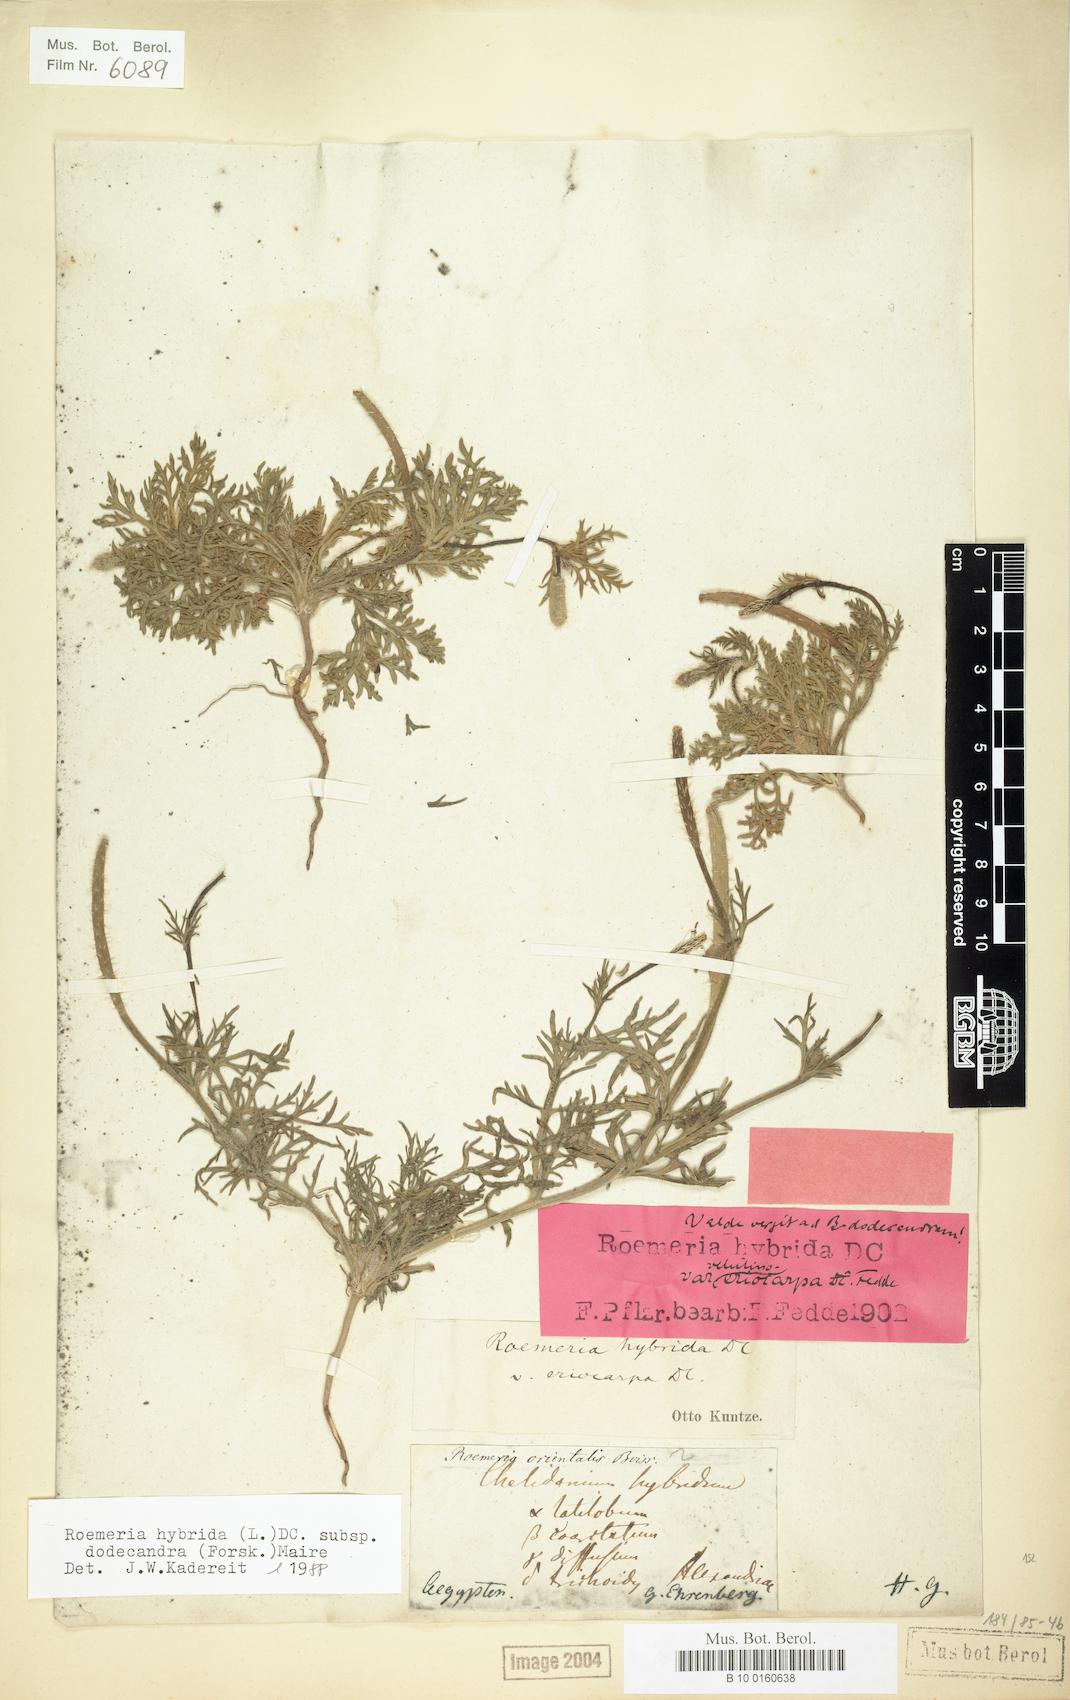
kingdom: Plantae
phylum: Tracheophyta
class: Magnoliopsida
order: Ranunculales
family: Papaveraceae
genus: Roemeria
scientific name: Roemeria hybrida
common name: Violet horned-poppy
